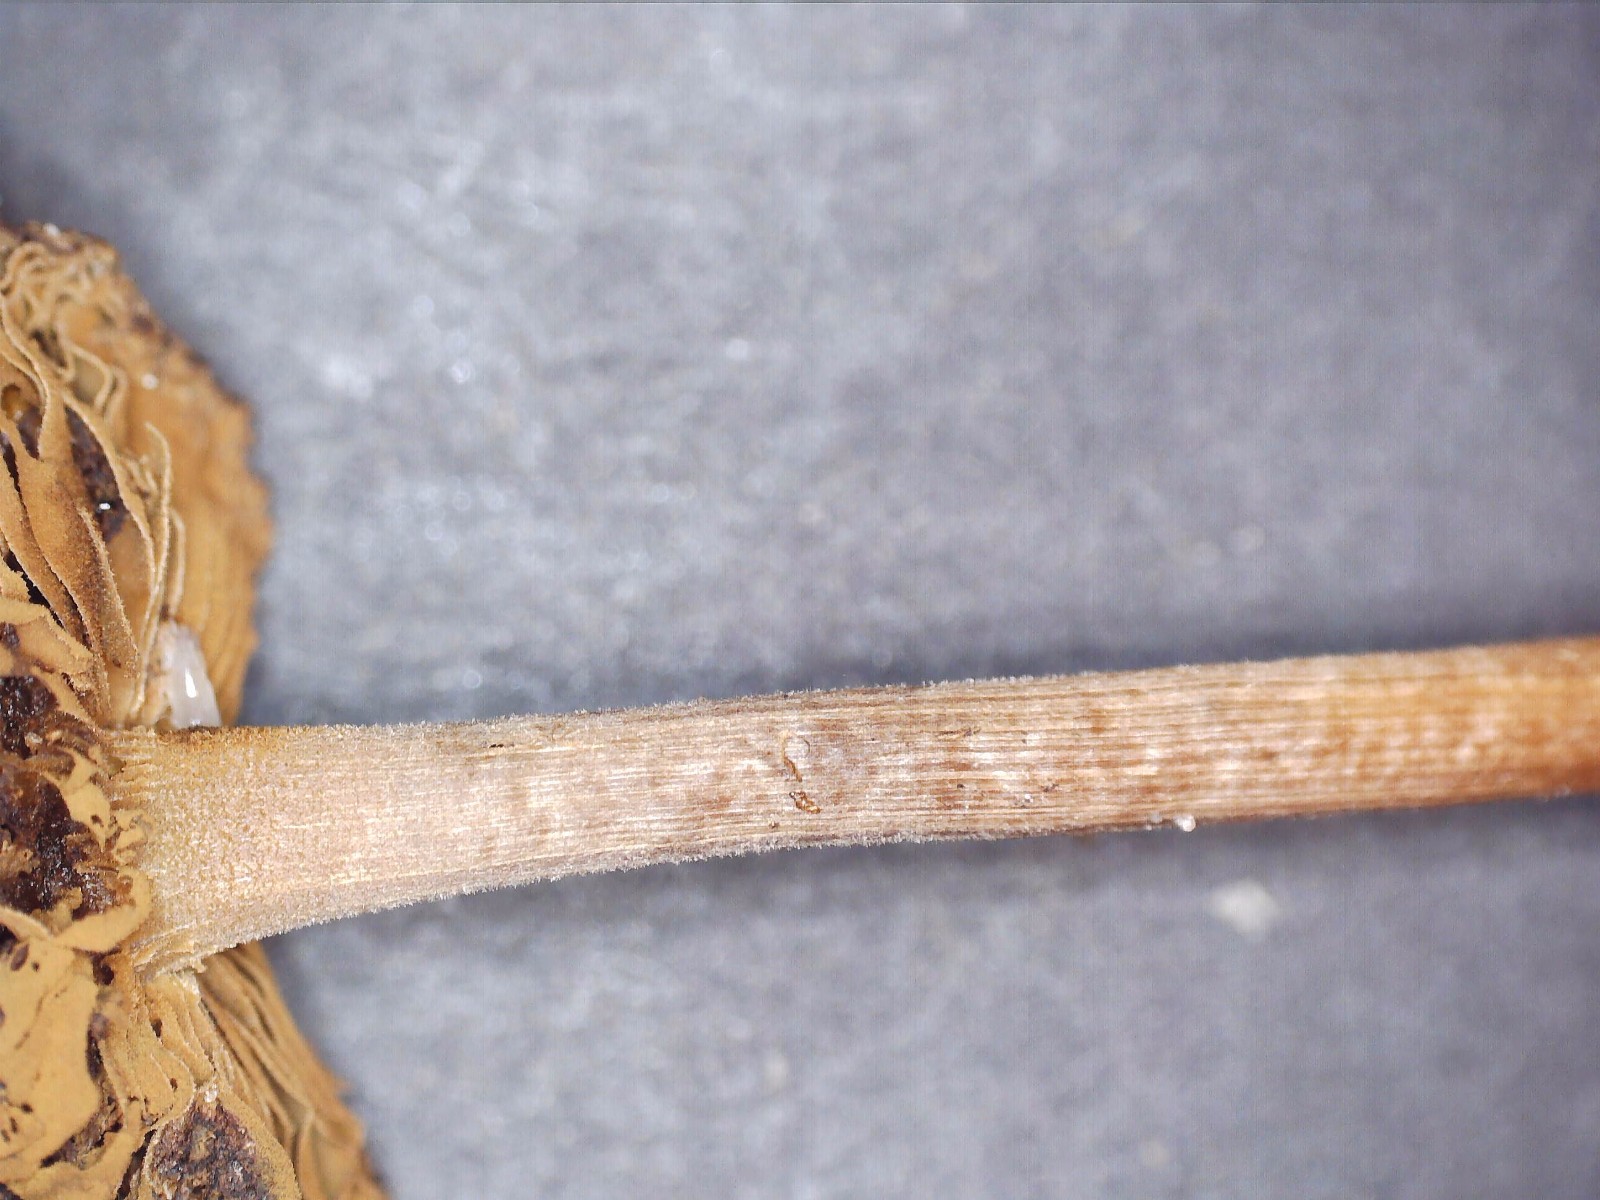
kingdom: Fungi
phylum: Basidiomycota
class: Agaricomycetes
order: Agaricales
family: Inocybaceae
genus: Inocybe
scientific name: Inocybe
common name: trævlhat
